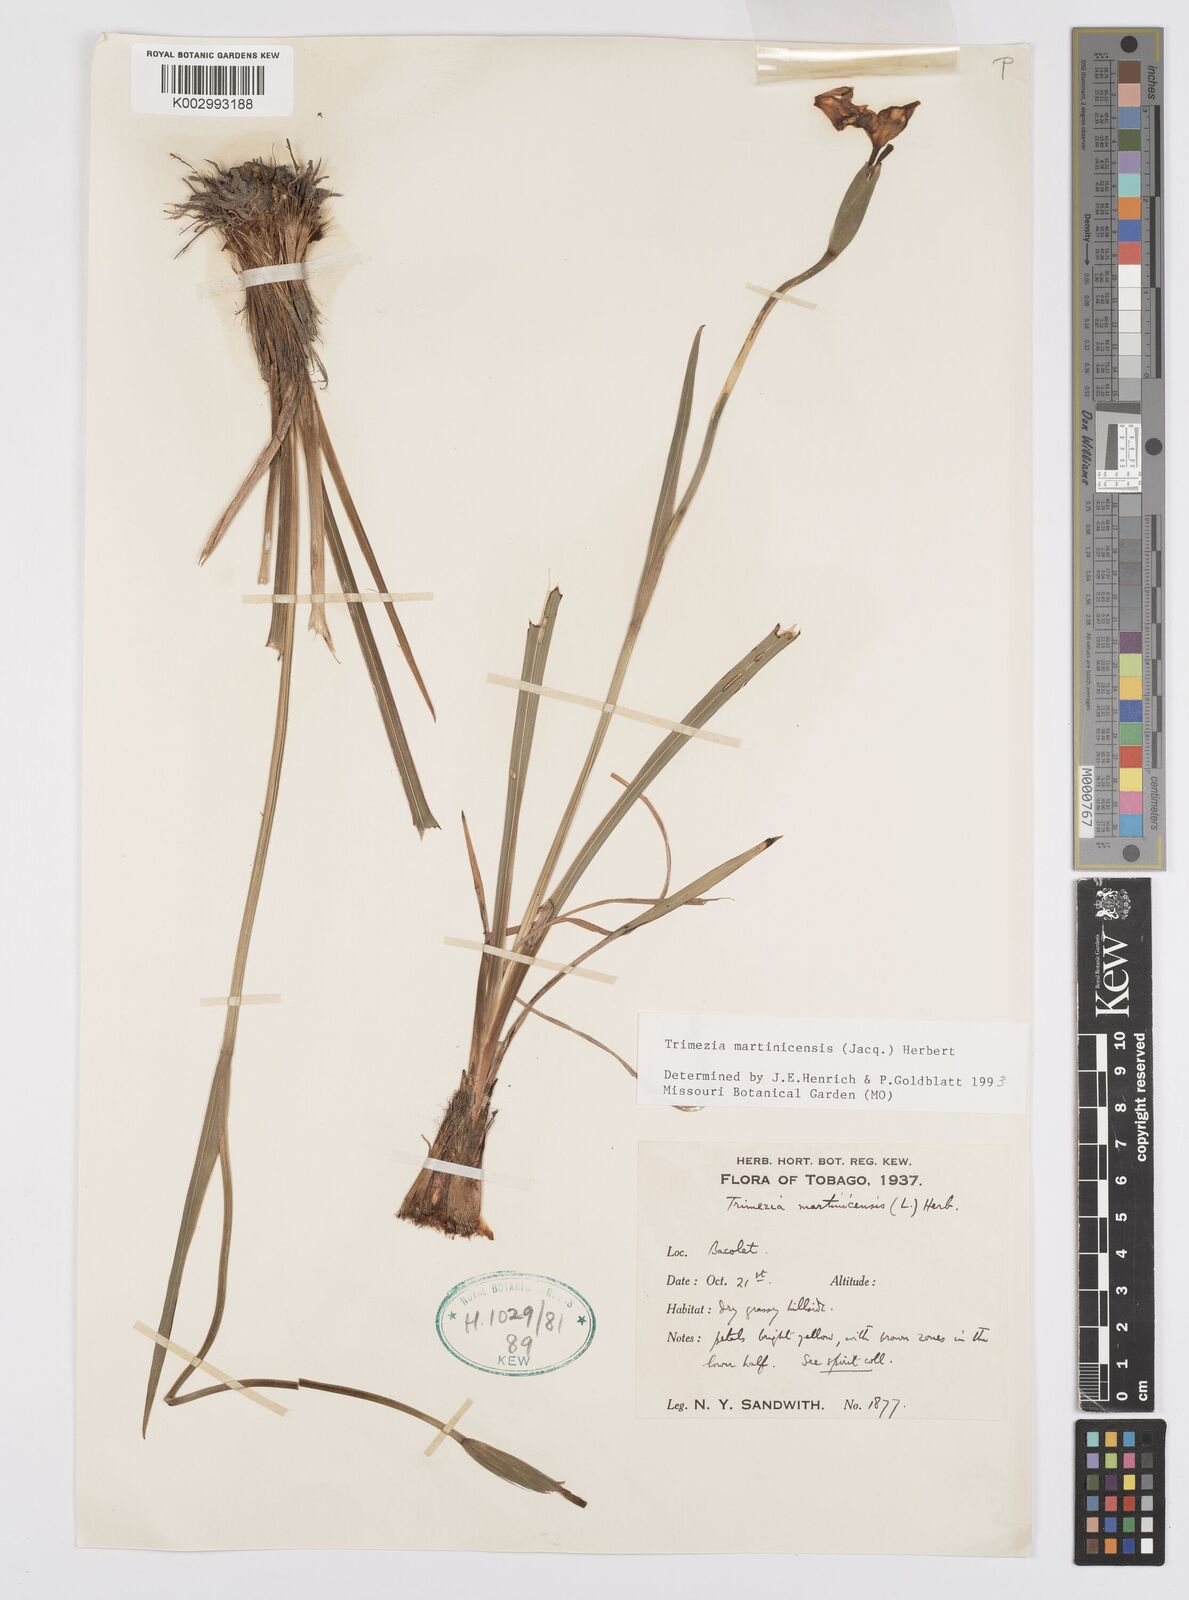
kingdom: Plantae
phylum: Tracheophyta
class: Liliopsida
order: Asparagales
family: Iridaceae
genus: Trimezia
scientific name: Trimezia martinicensis
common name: Martinique trimezia
